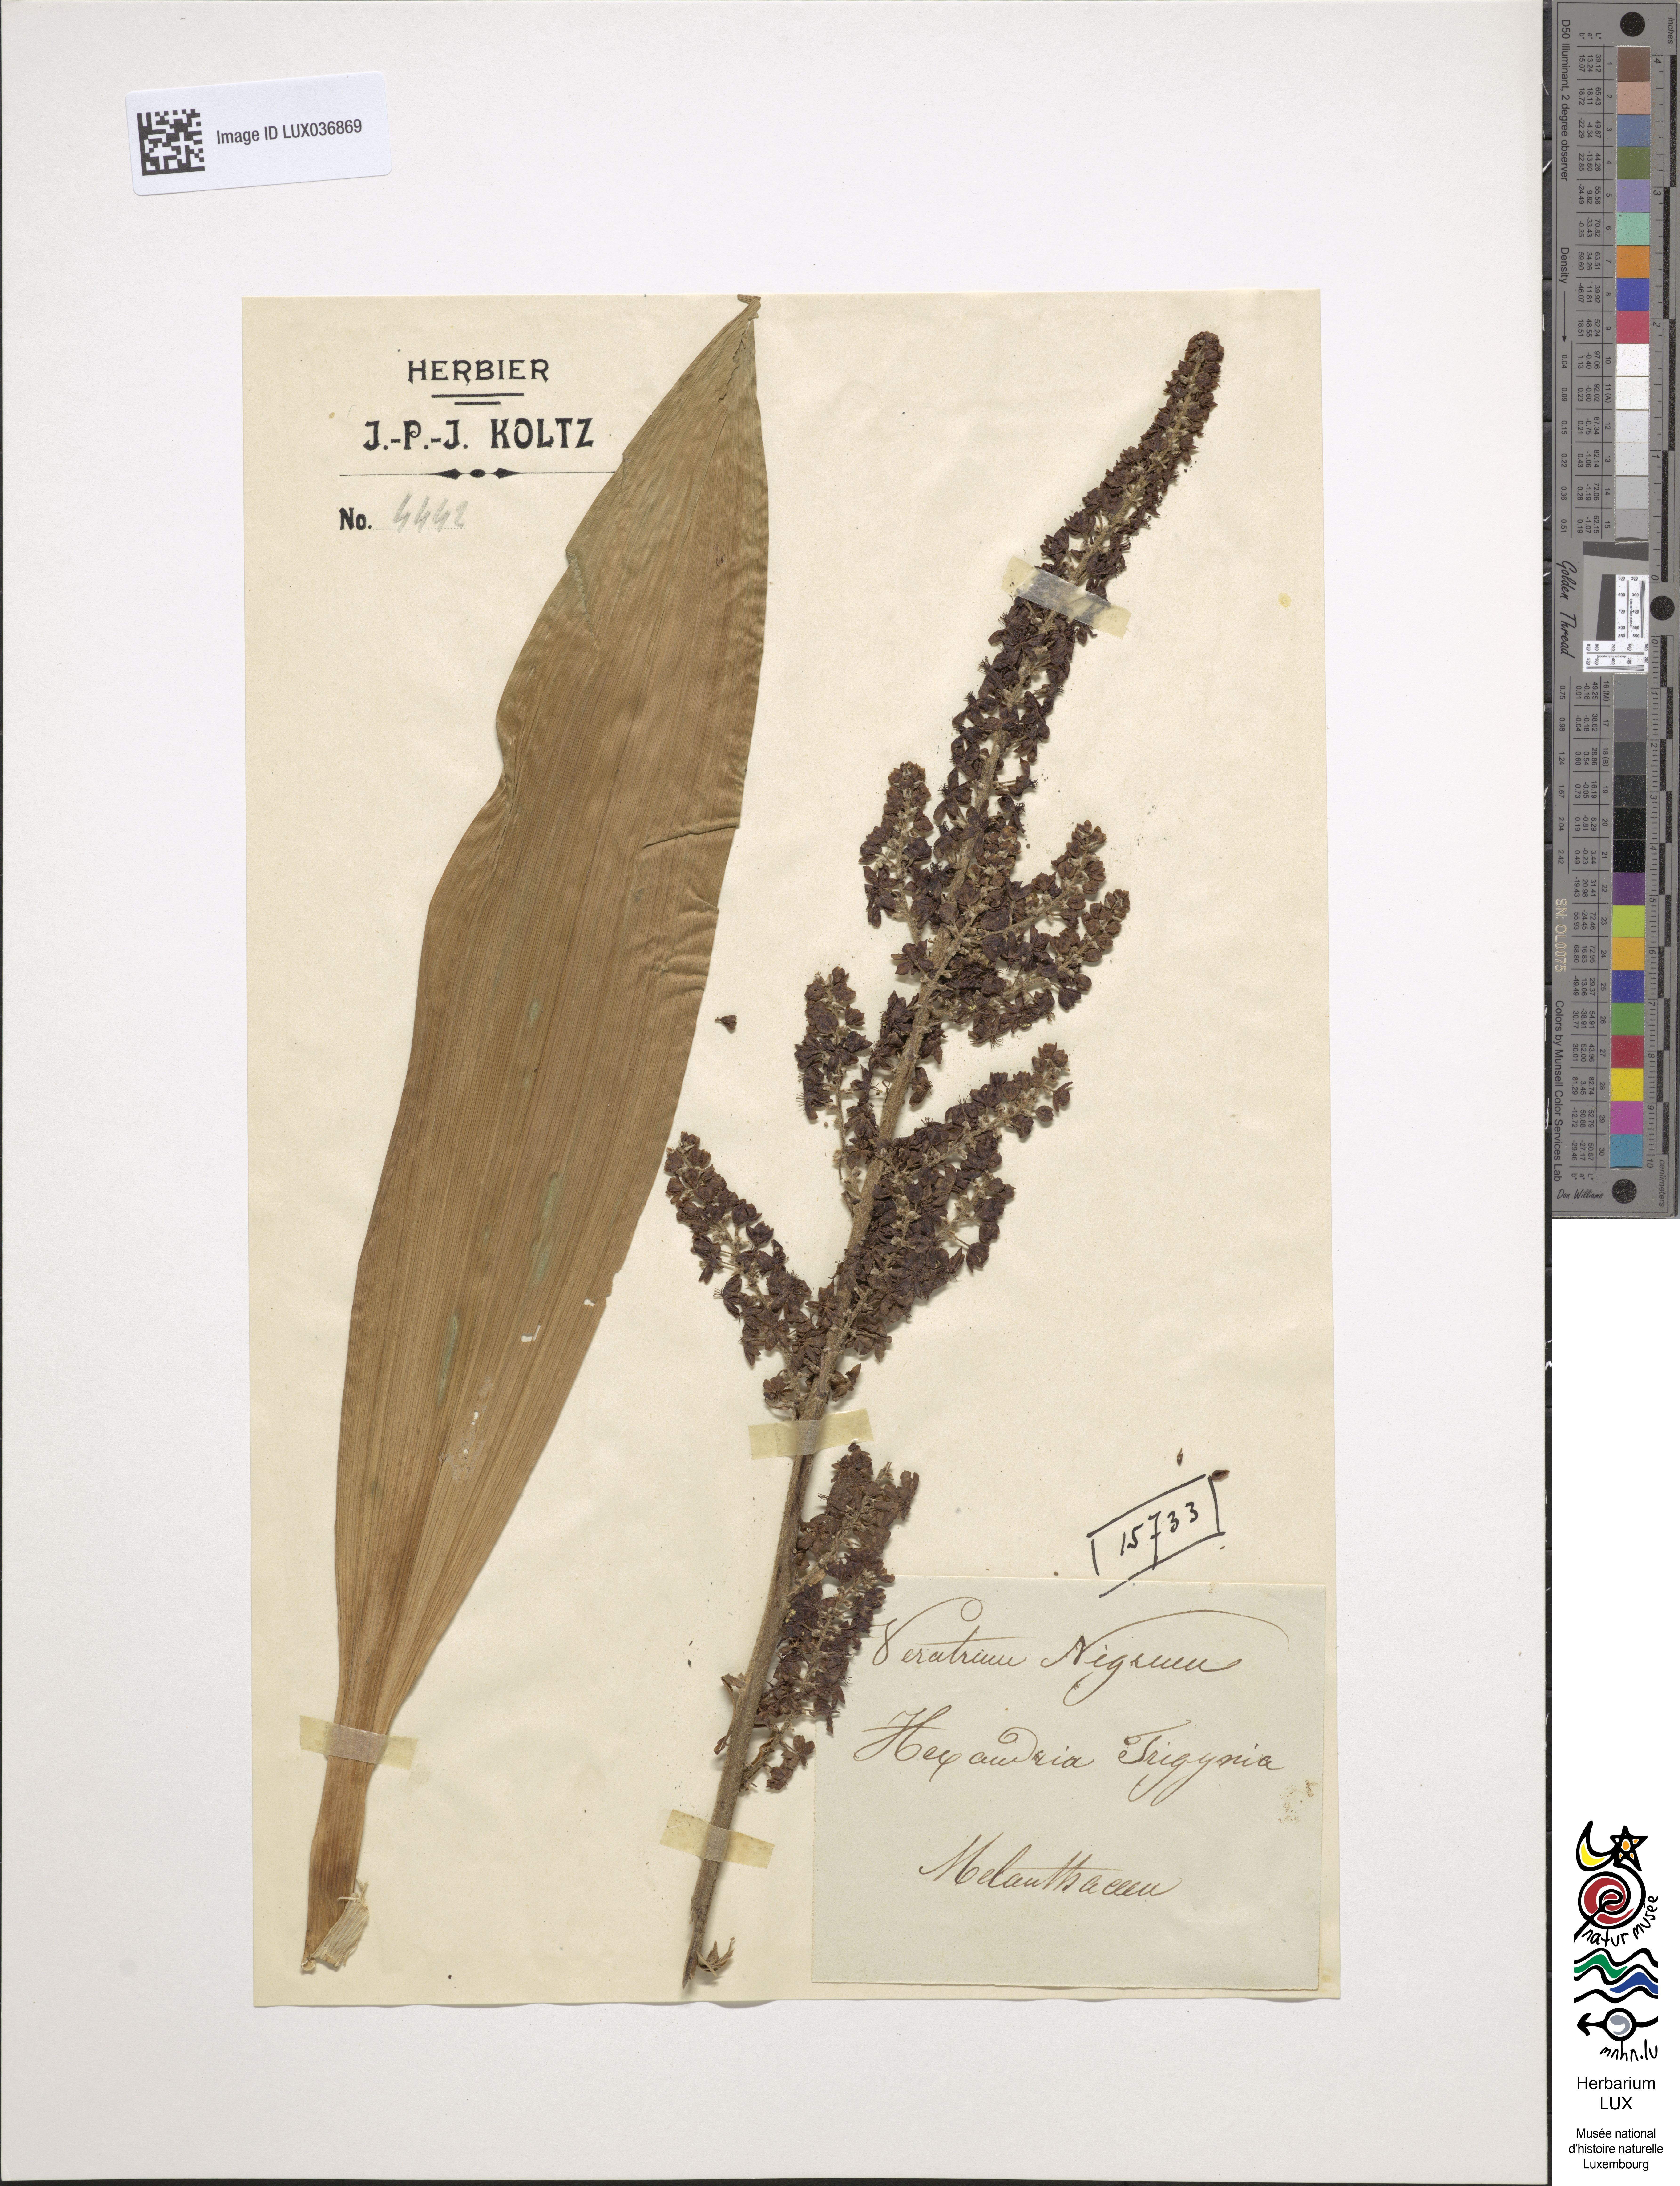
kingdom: Plantae
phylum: Tracheophyta
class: Liliopsida
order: Liliales
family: Melanthiaceae
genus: Veratrum
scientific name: Veratrum nigrum
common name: Black veratrum
